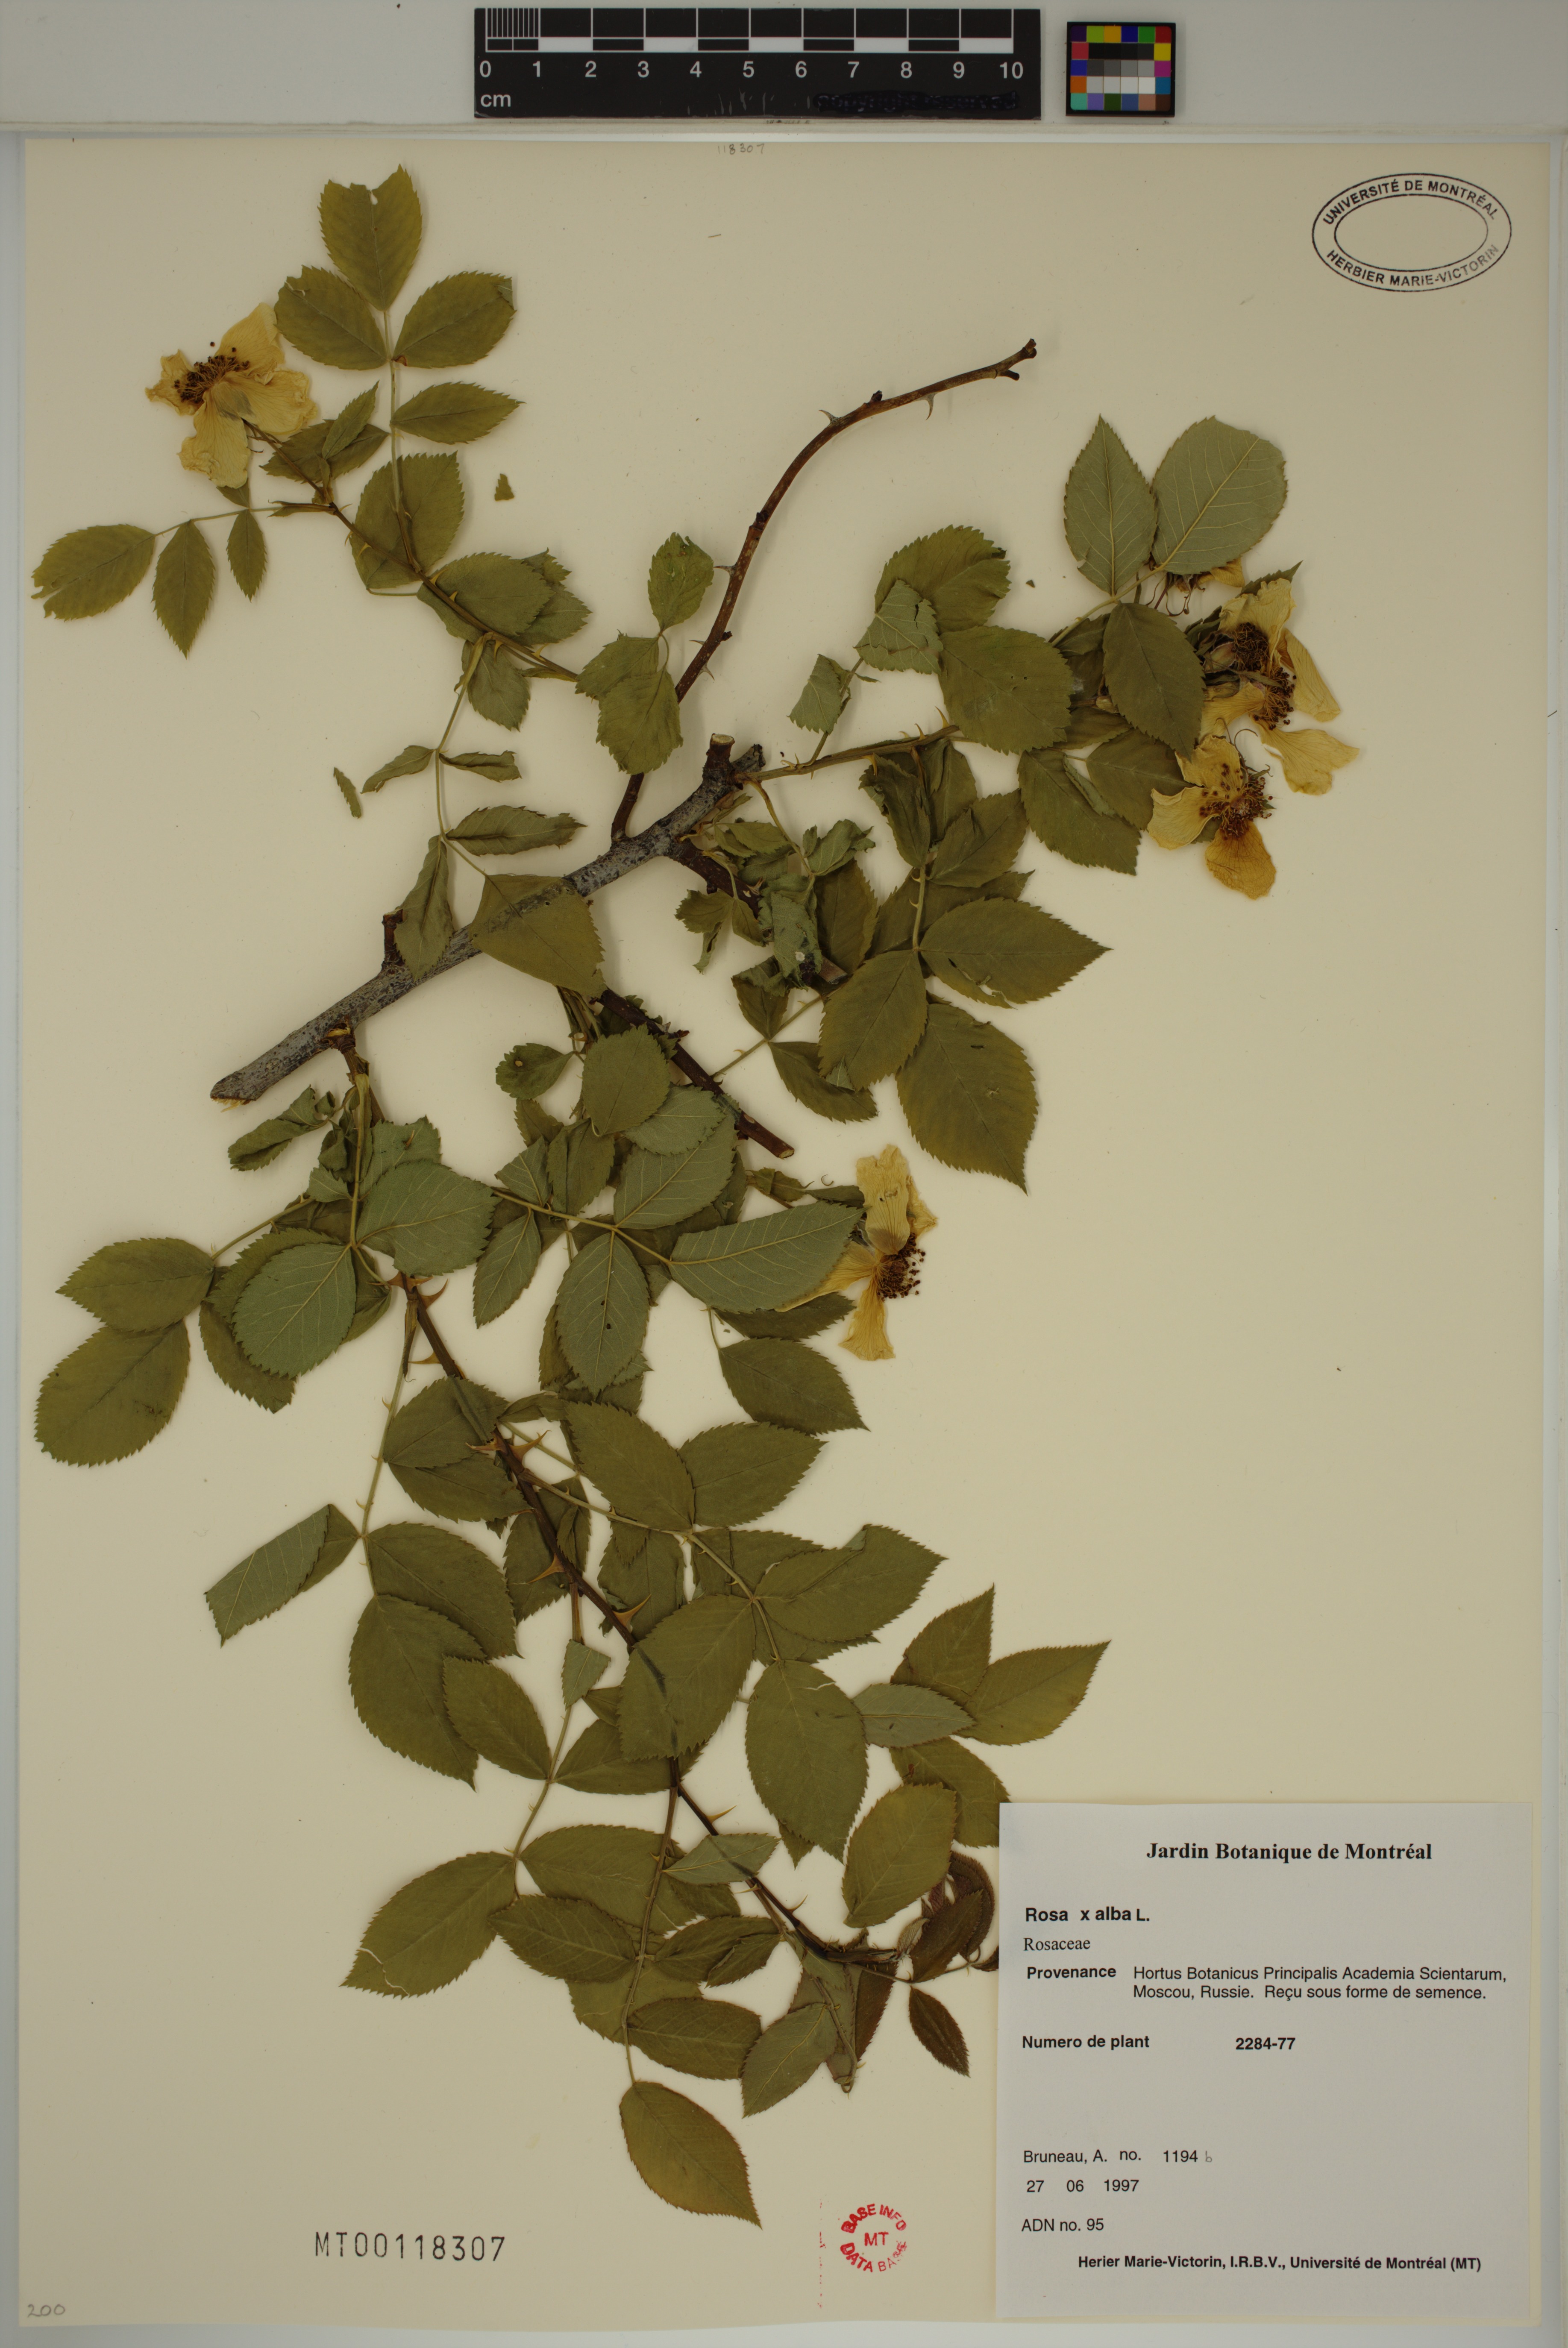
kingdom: Plantae
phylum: Tracheophyta
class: Magnoliopsida
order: Rosales
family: Rosaceae
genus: Rosa
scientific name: Rosa alba
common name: White rose
